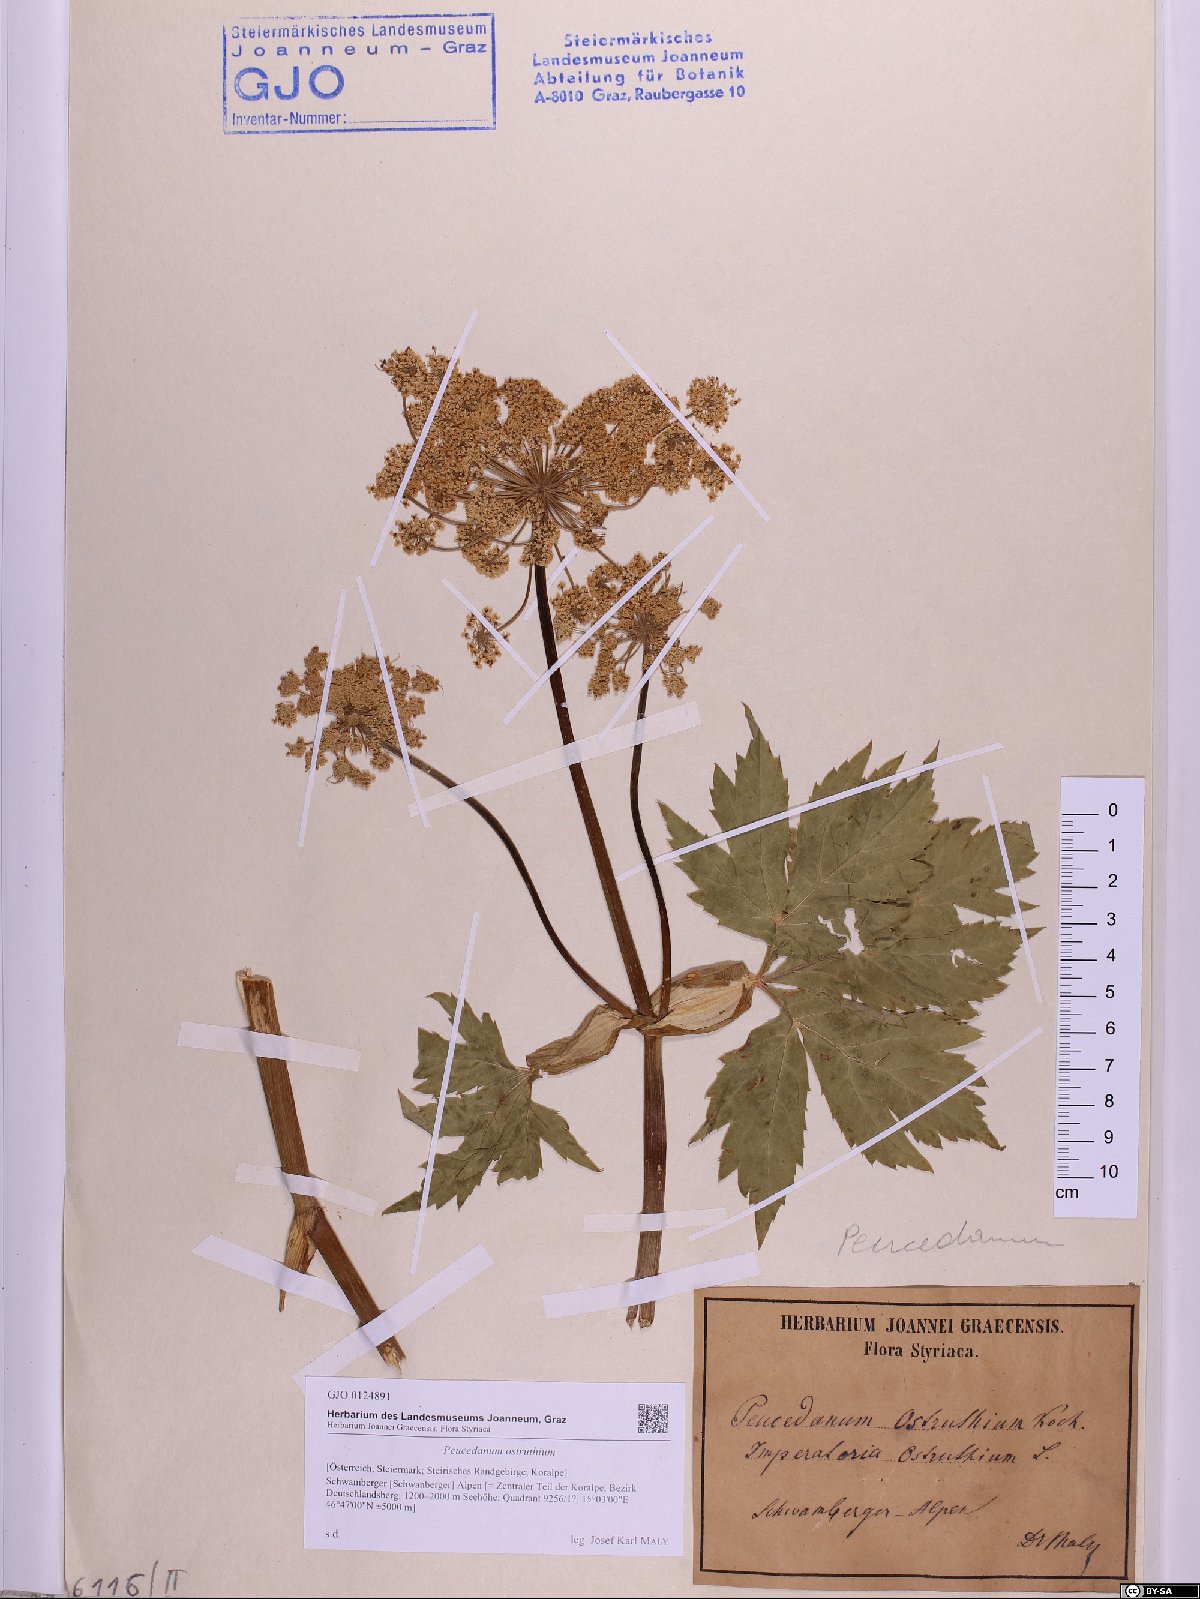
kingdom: Plantae
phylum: Tracheophyta
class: Magnoliopsida
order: Apiales
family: Apiaceae
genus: Imperatoria
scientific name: Imperatoria ostruthium
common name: Masterwort
